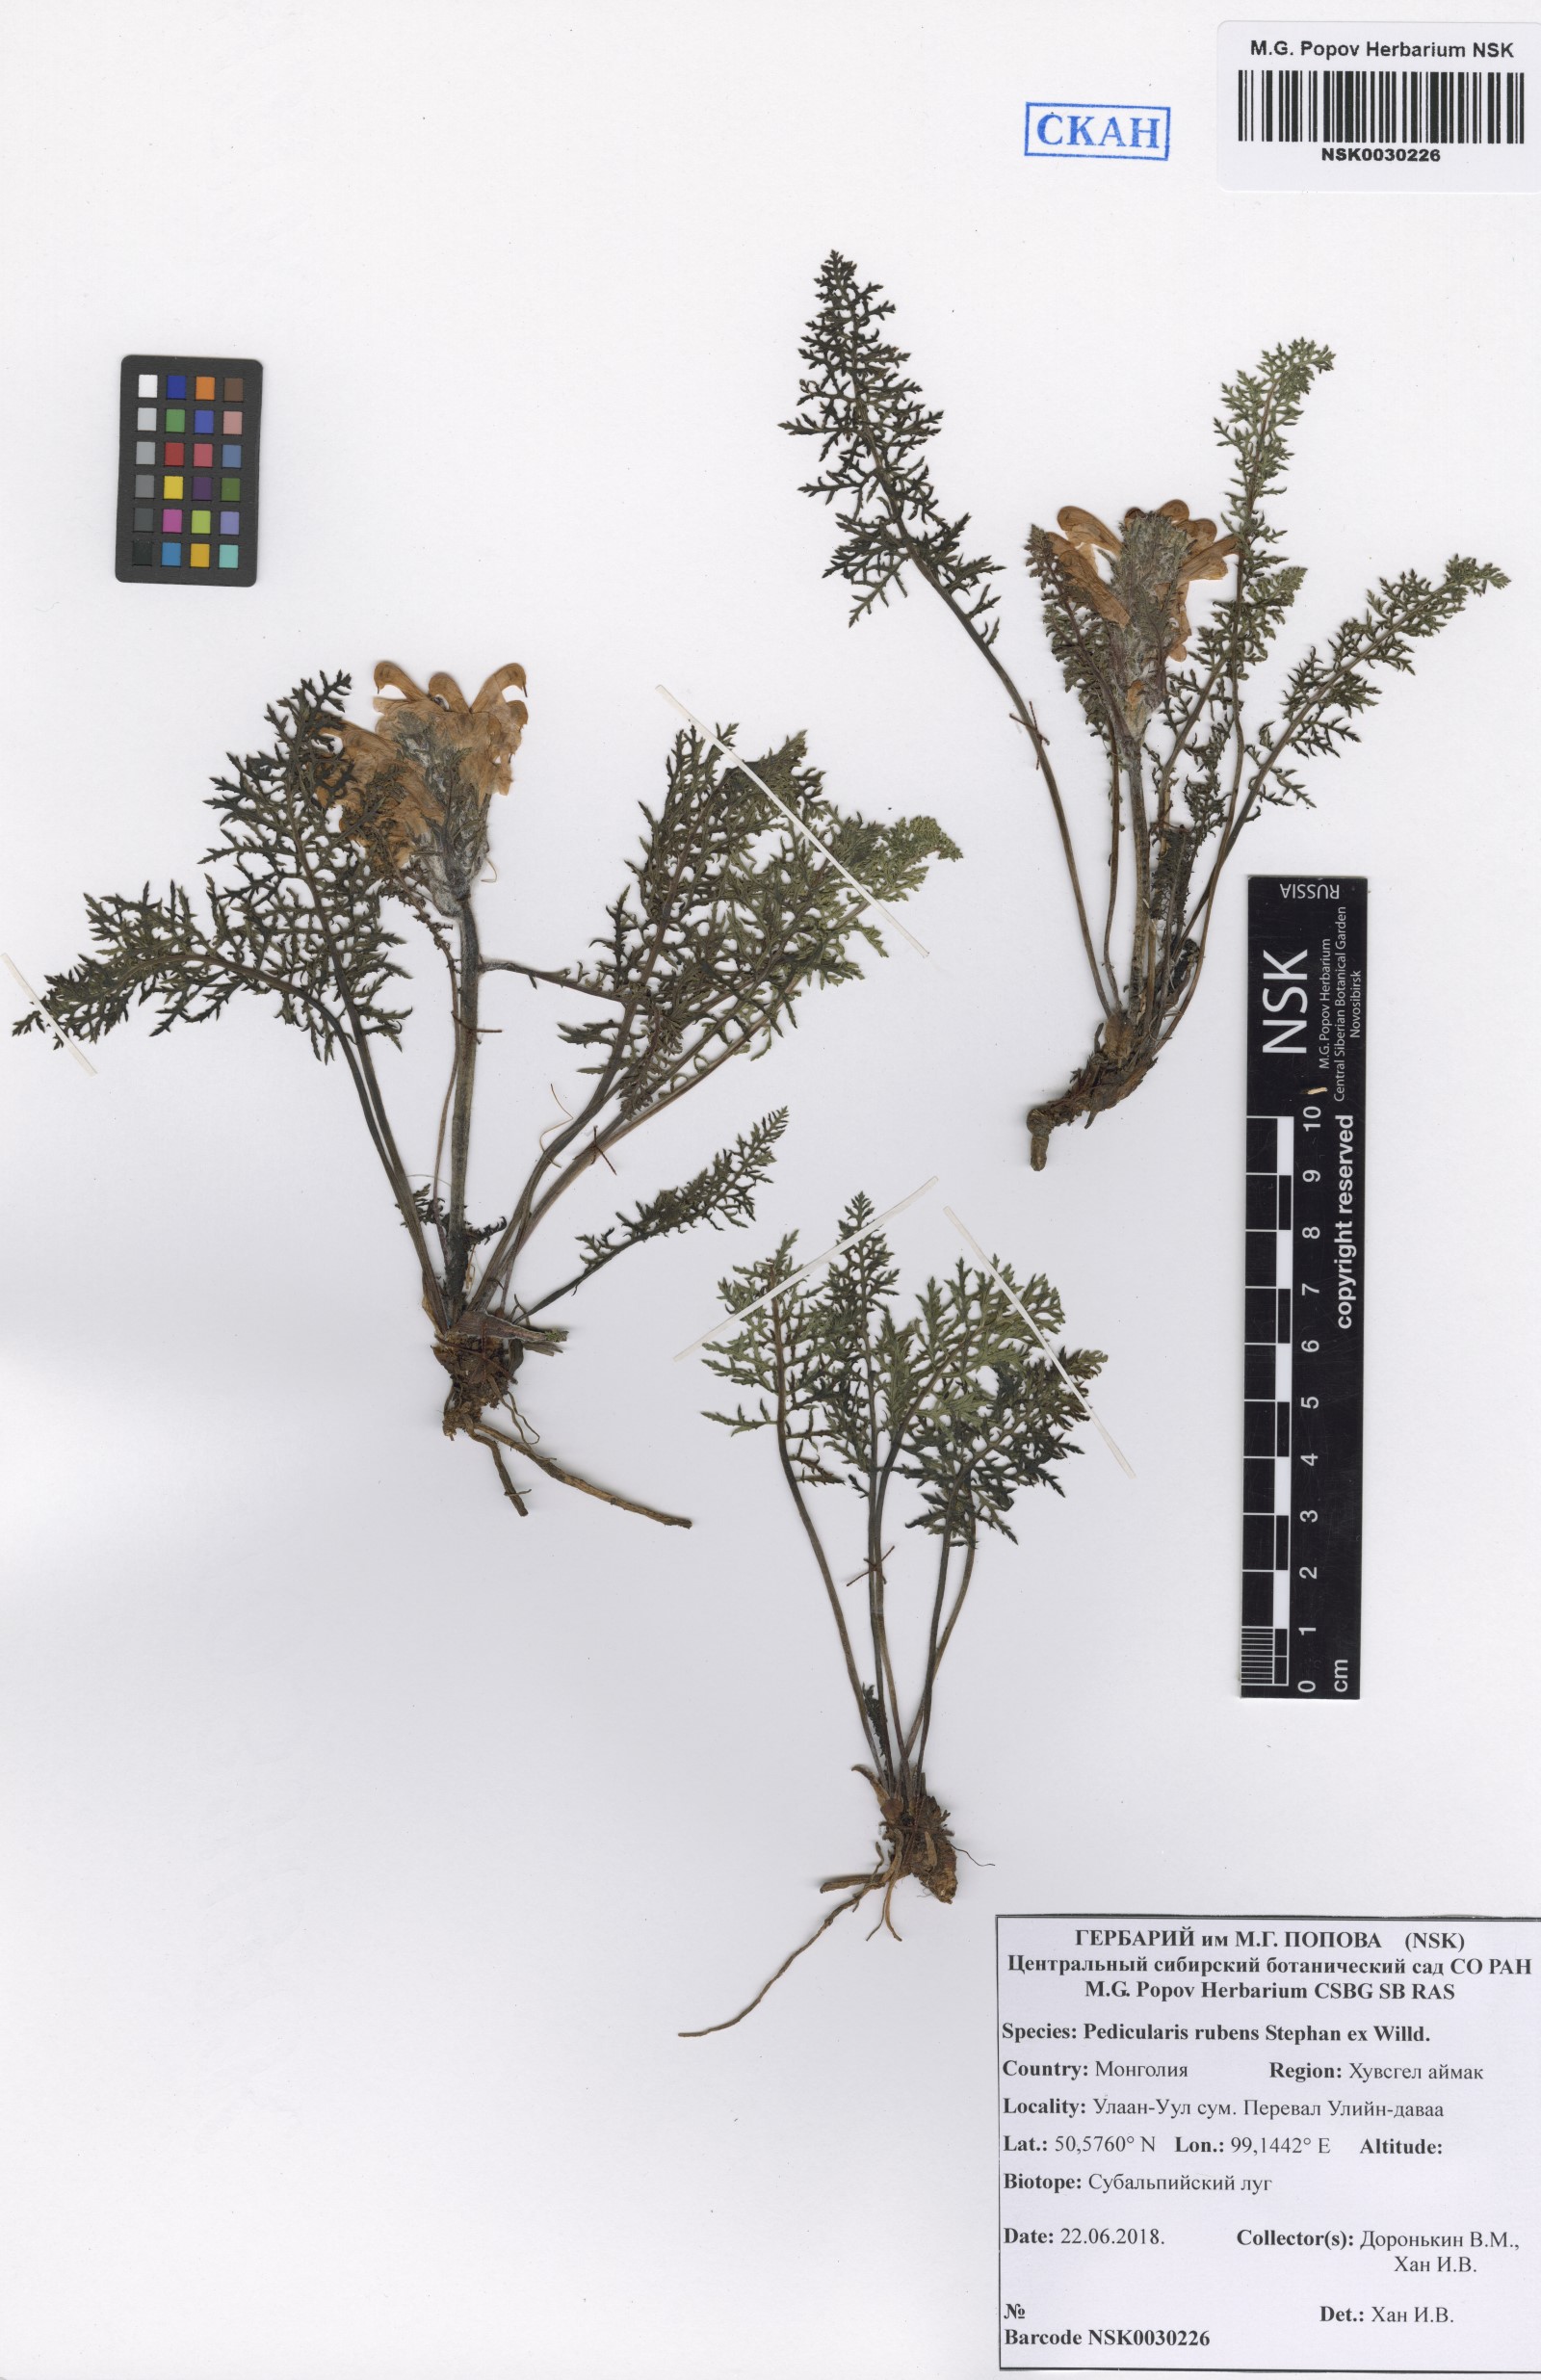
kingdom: Plantae
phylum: Tracheophyta
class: Magnoliopsida
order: Lamiales
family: Orobanchaceae
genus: Pedicularis
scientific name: Pedicularis rubens
